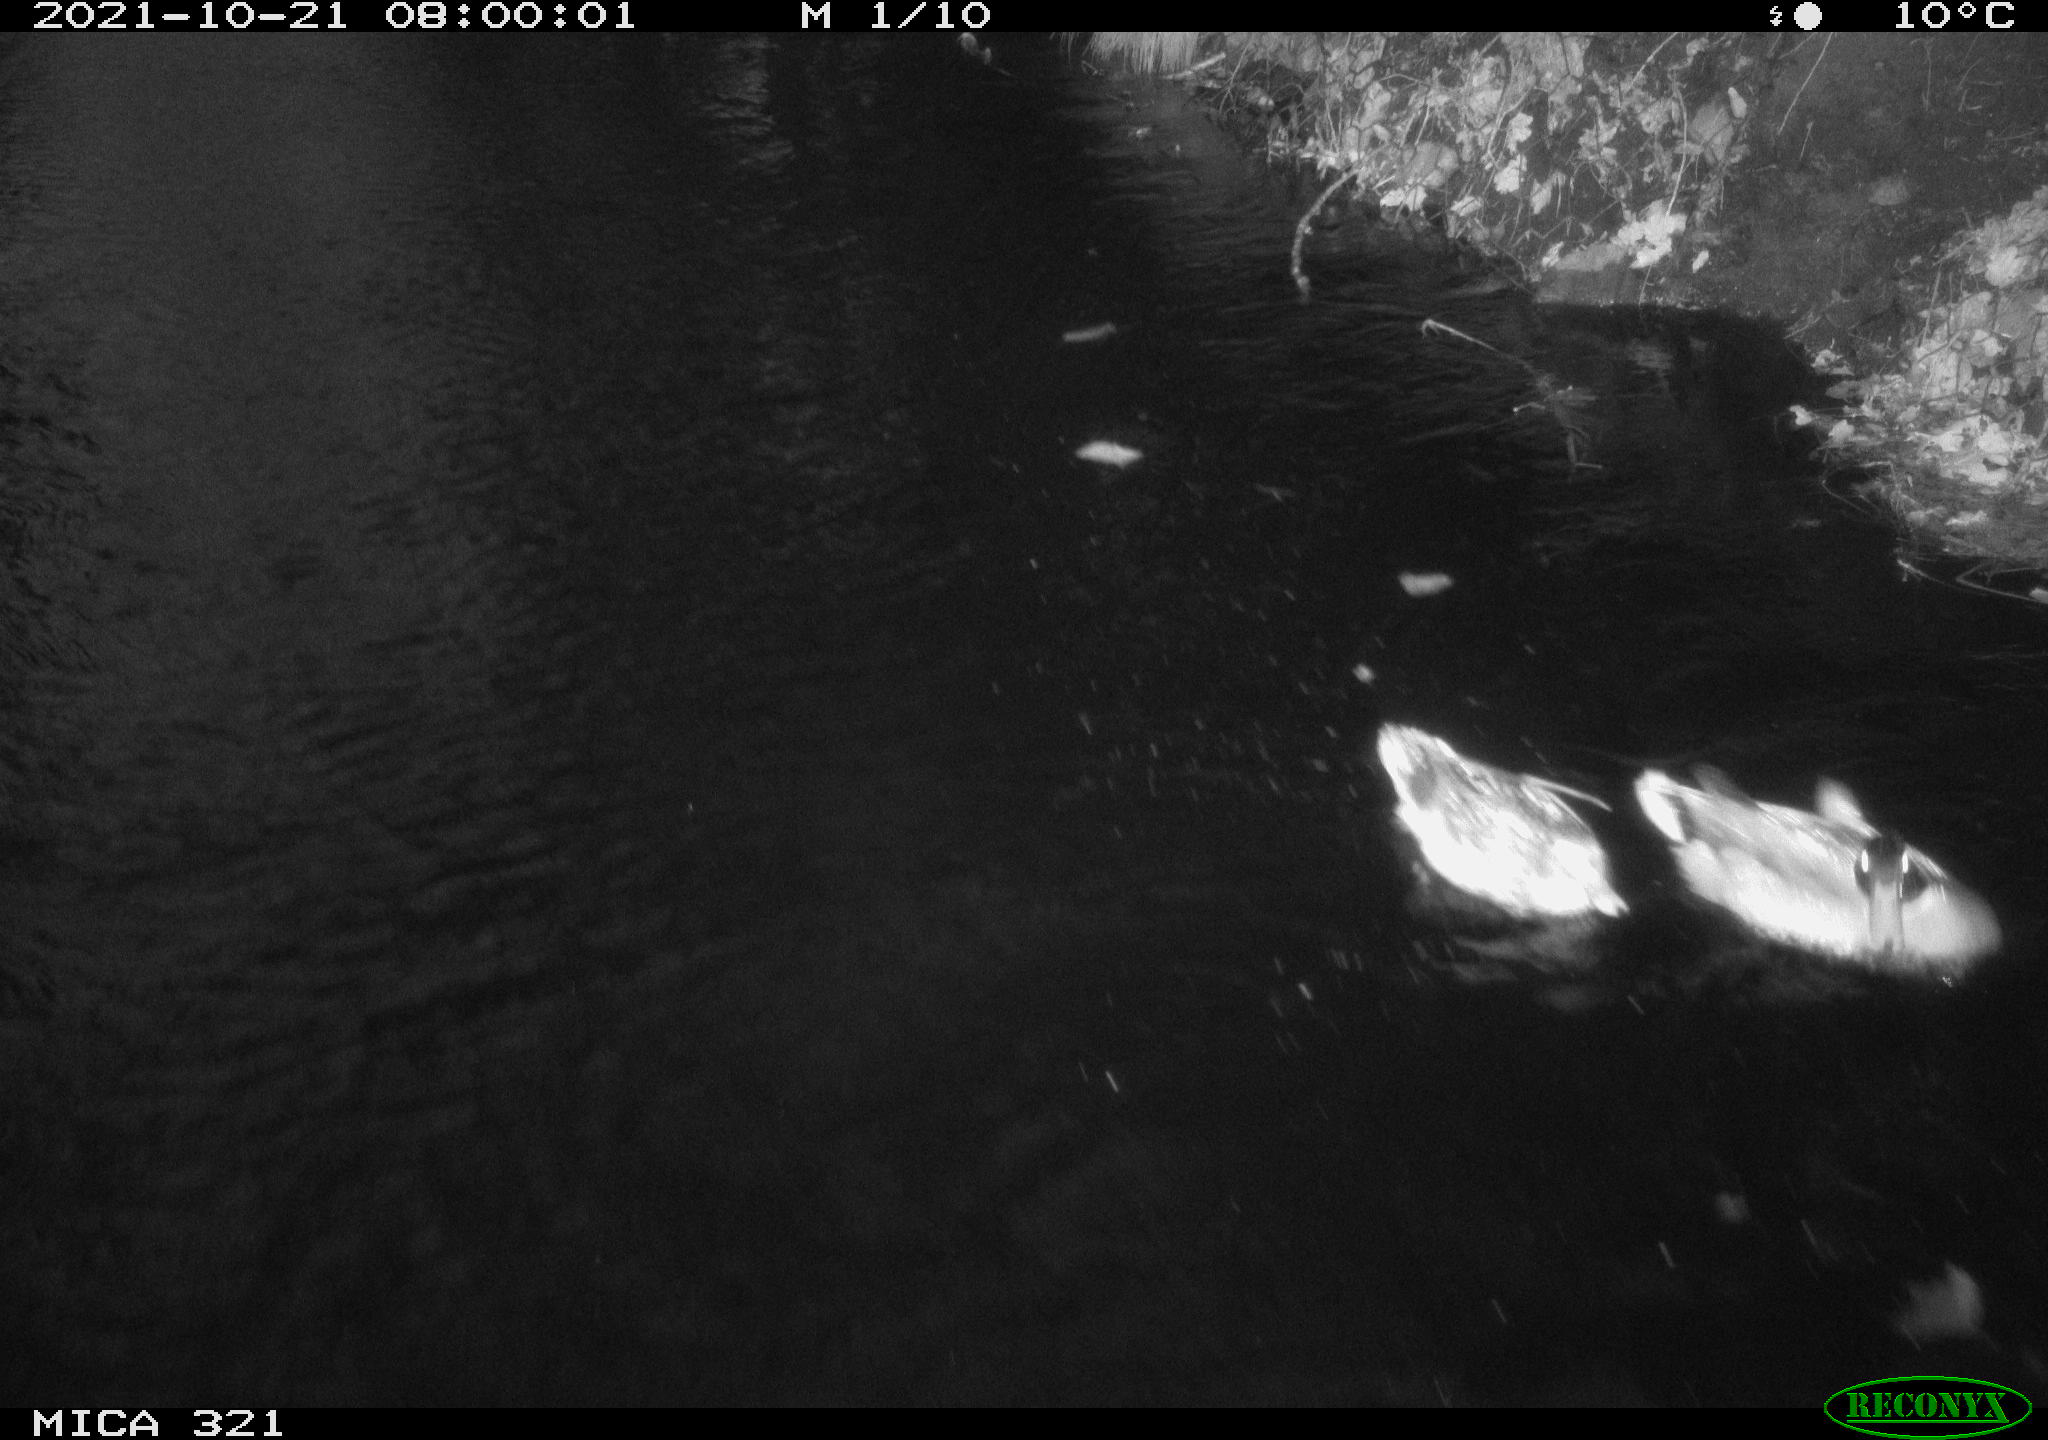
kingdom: Animalia
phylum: Chordata
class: Aves
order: Anseriformes
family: Anatidae
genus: Anas
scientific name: Anas platyrhynchos
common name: Mallard
